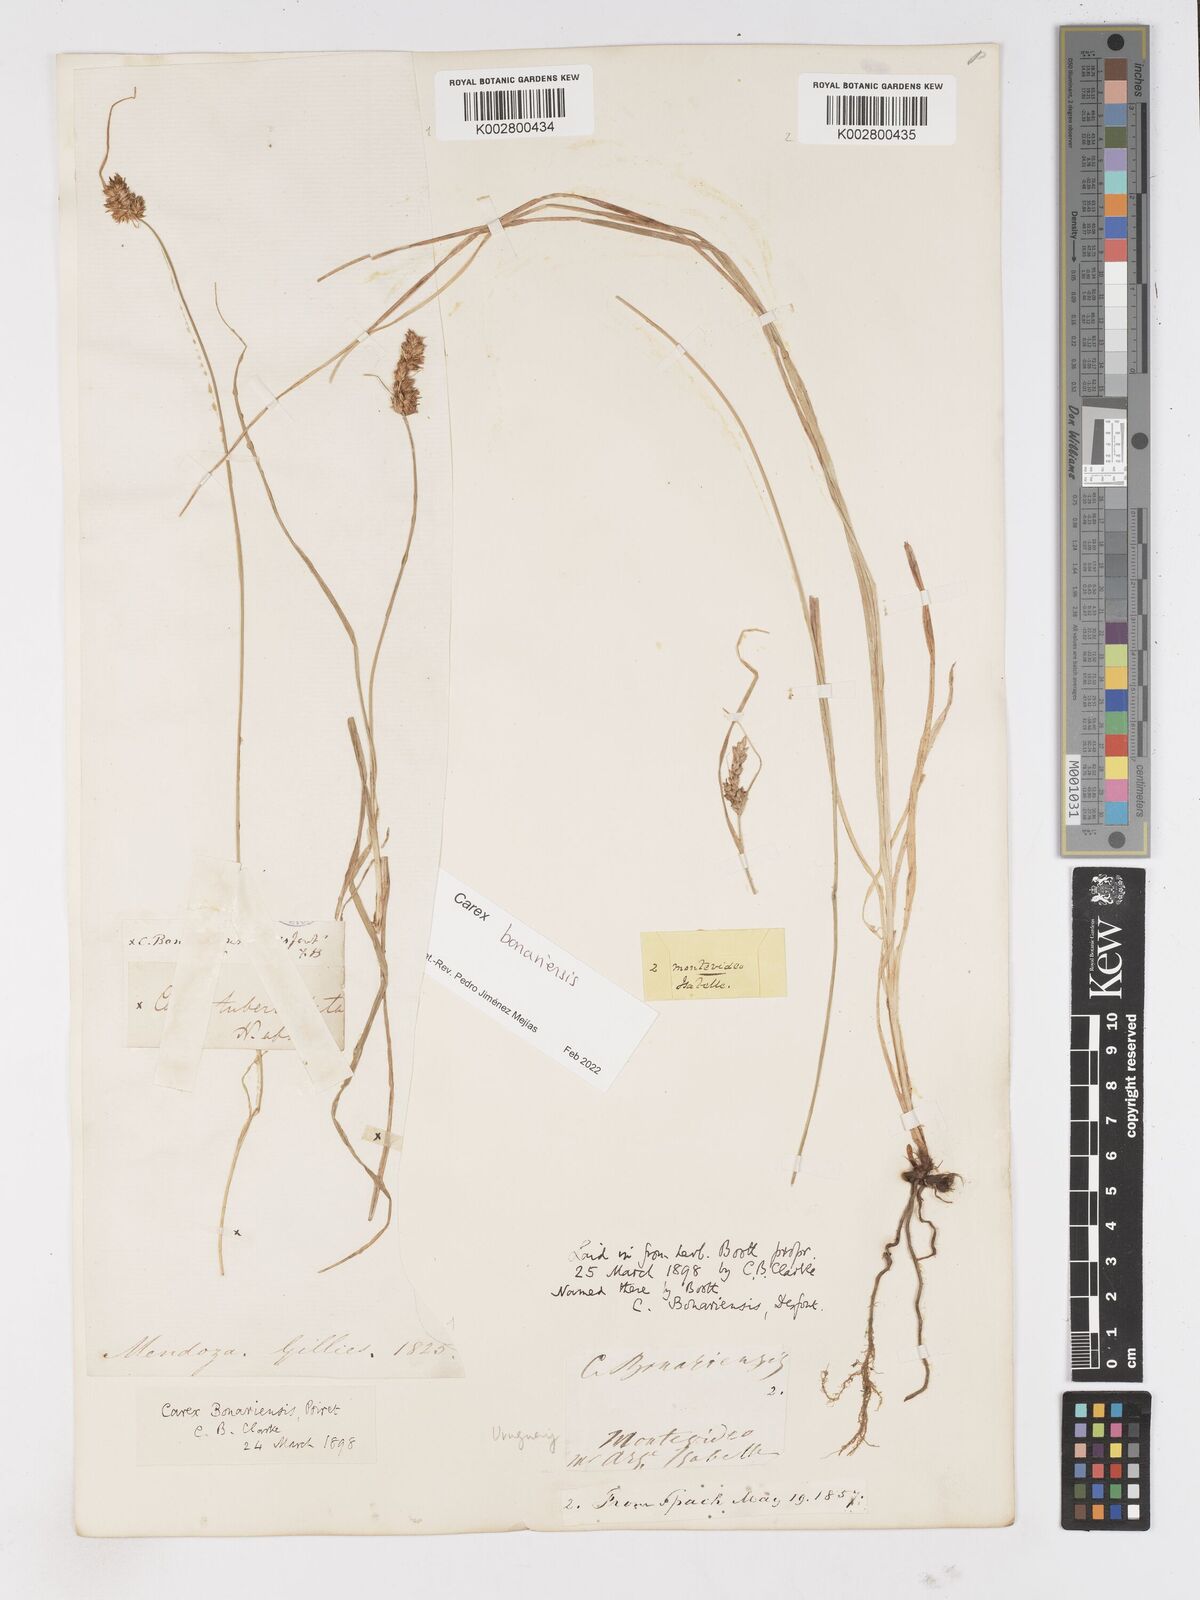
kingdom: Plantae
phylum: Tracheophyta
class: Liliopsida
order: Poales
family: Cyperaceae
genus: Carex
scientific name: Carex bonariensis
